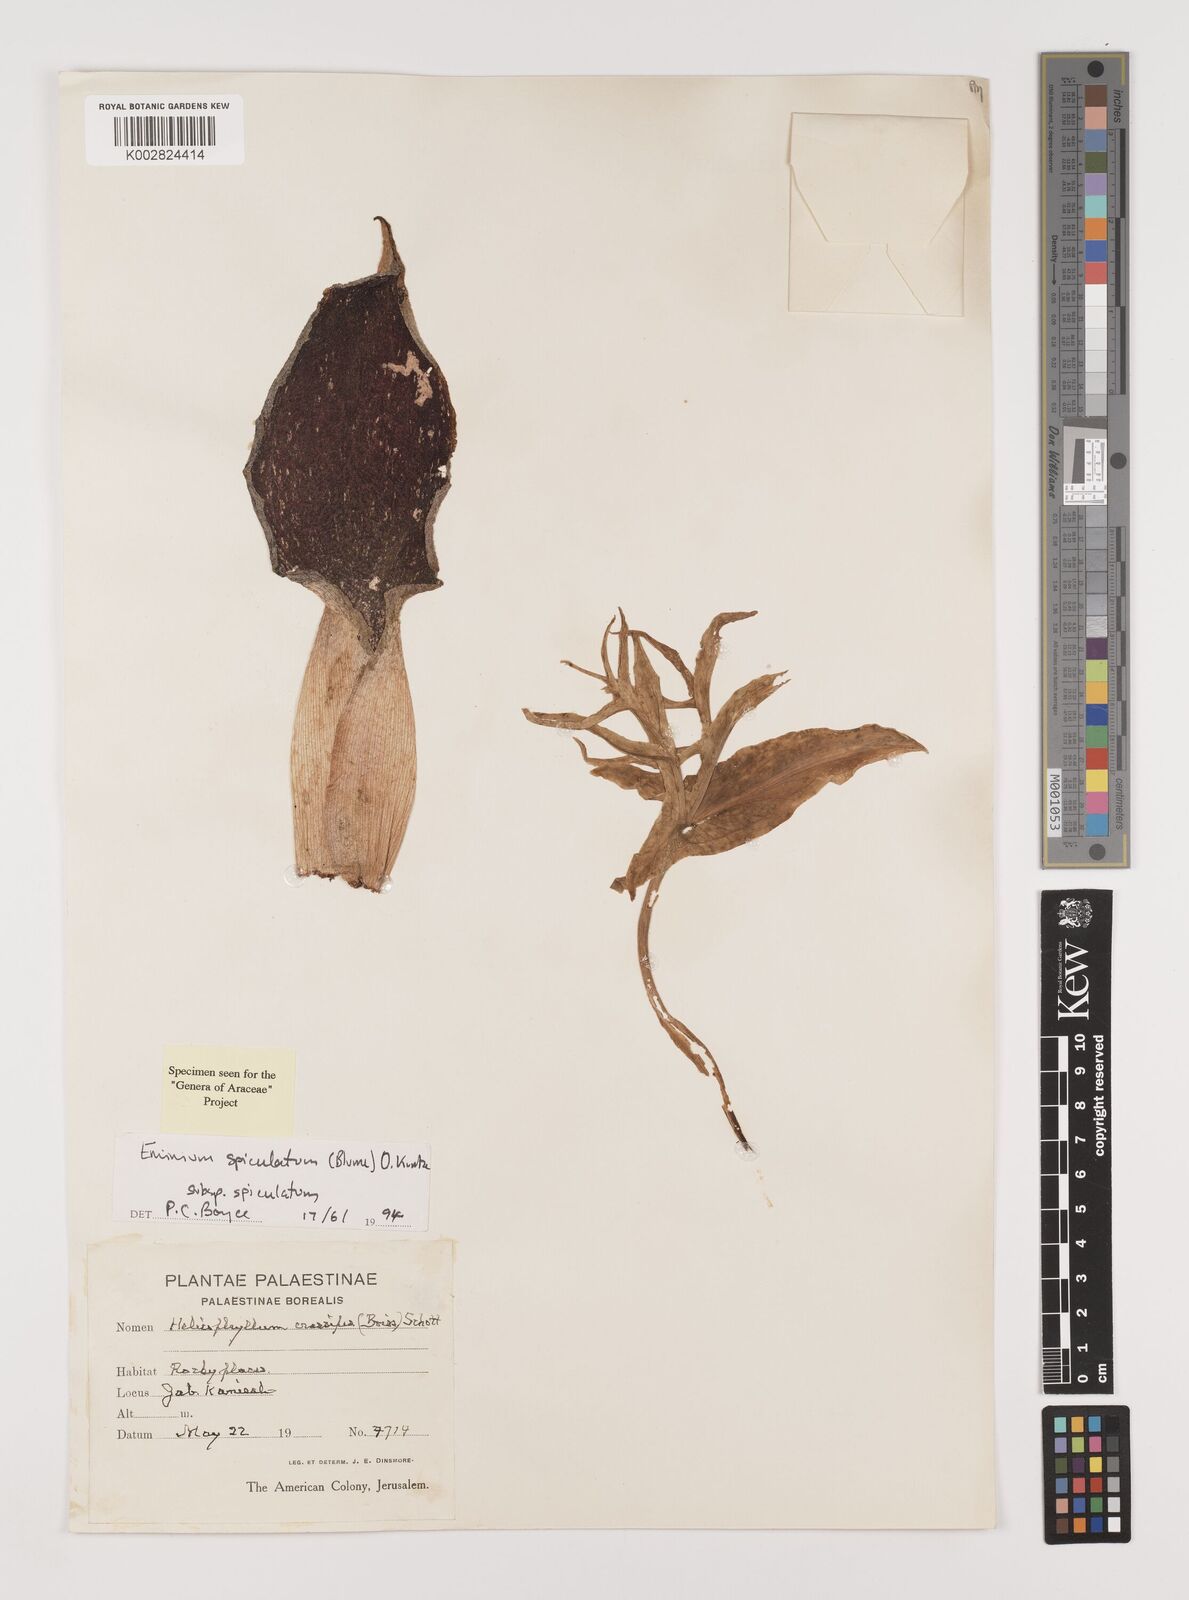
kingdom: Plantae
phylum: Tracheophyta
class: Liliopsida
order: Alismatales
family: Araceae
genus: Eminium
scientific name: Eminium spiculatum
